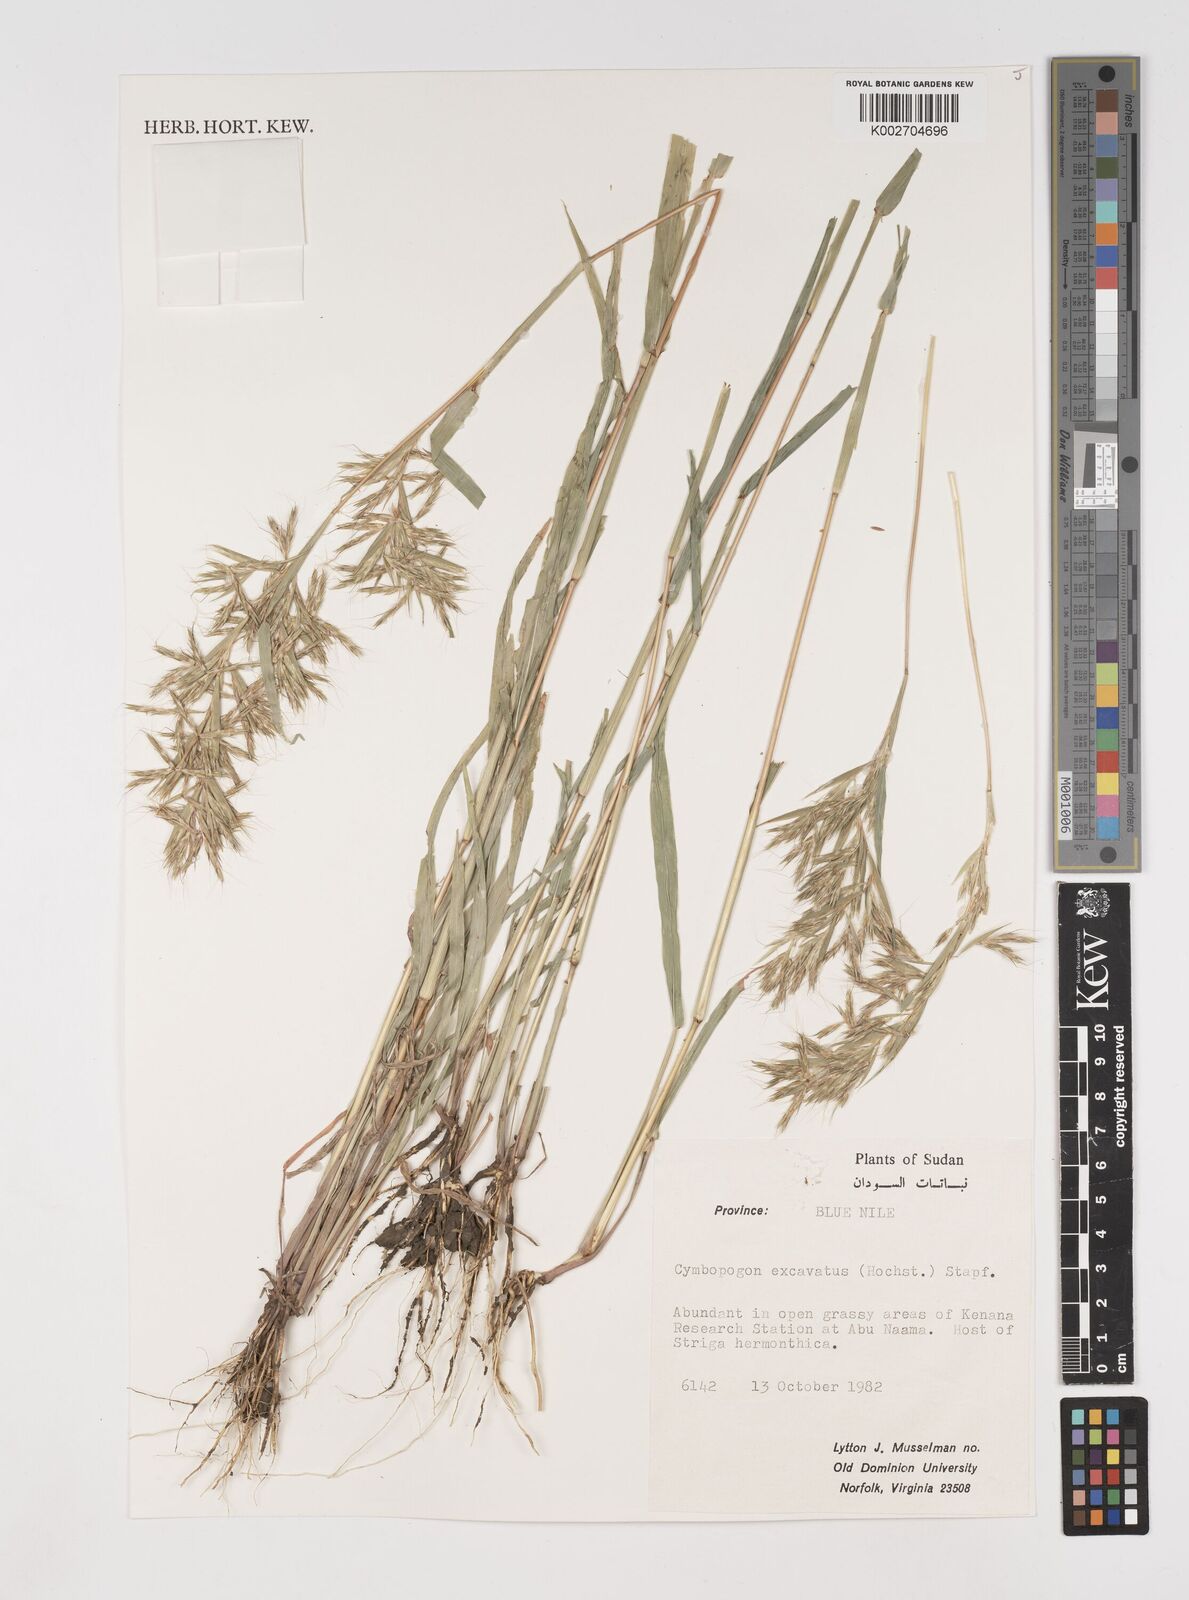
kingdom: Plantae
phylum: Tracheophyta
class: Liliopsida
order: Poales
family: Poaceae
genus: Cymbopogon
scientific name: Cymbopogon
